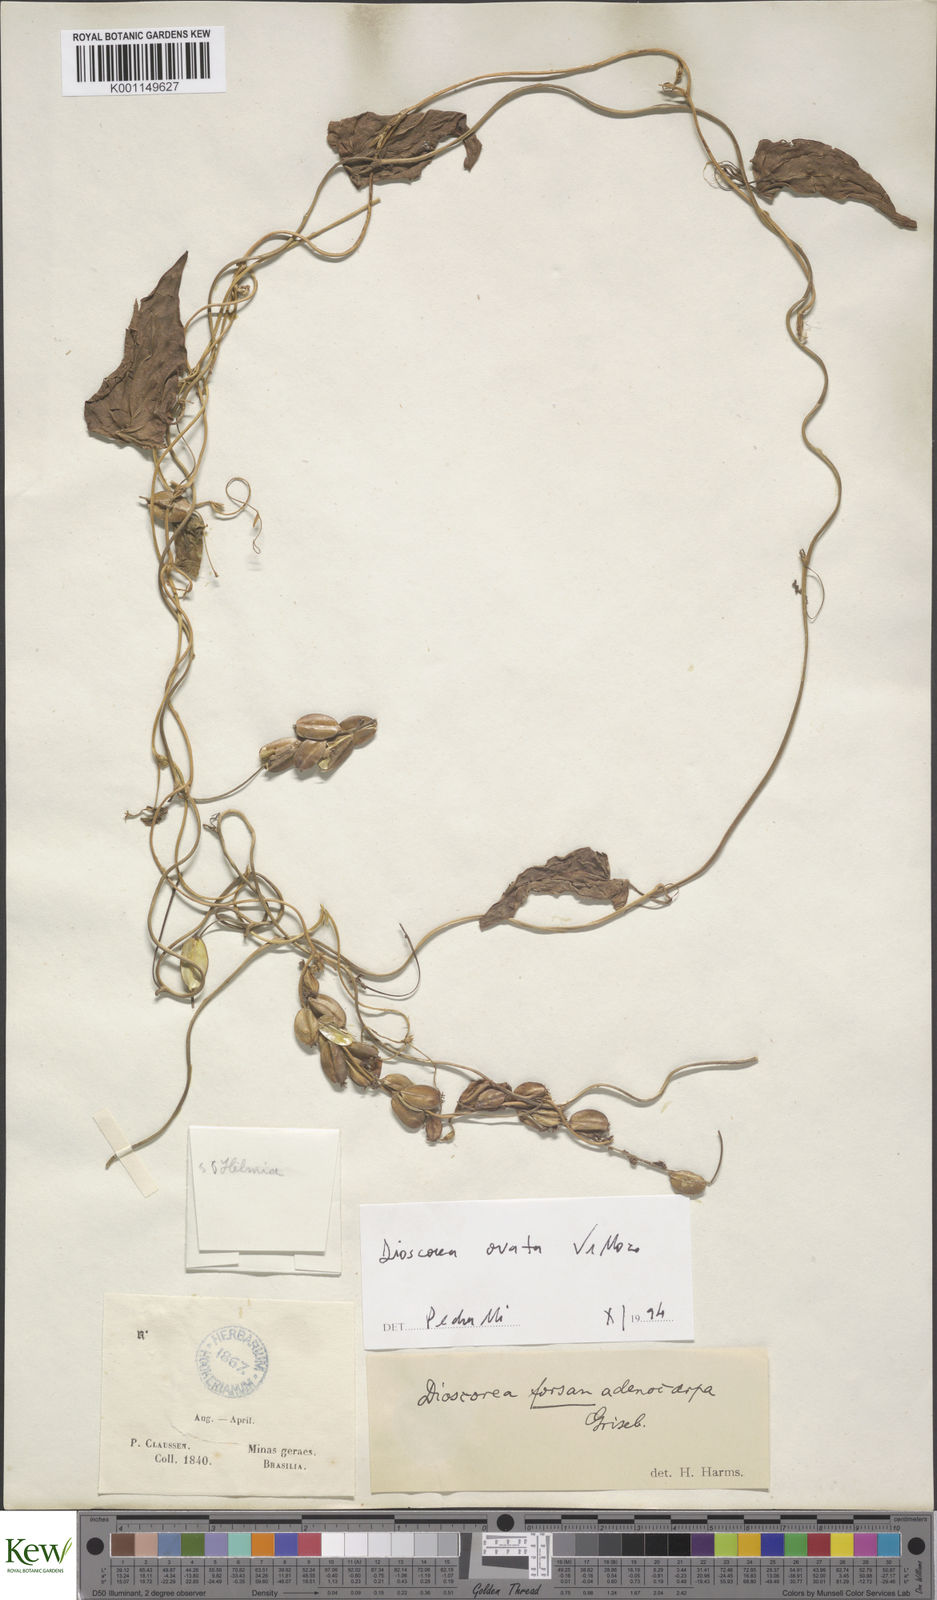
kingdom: Plantae
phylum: Tracheophyta
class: Liliopsida
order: Dioscoreales
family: Dioscoreaceae
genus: Dioscorea
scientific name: Dioscorea glandulosa
